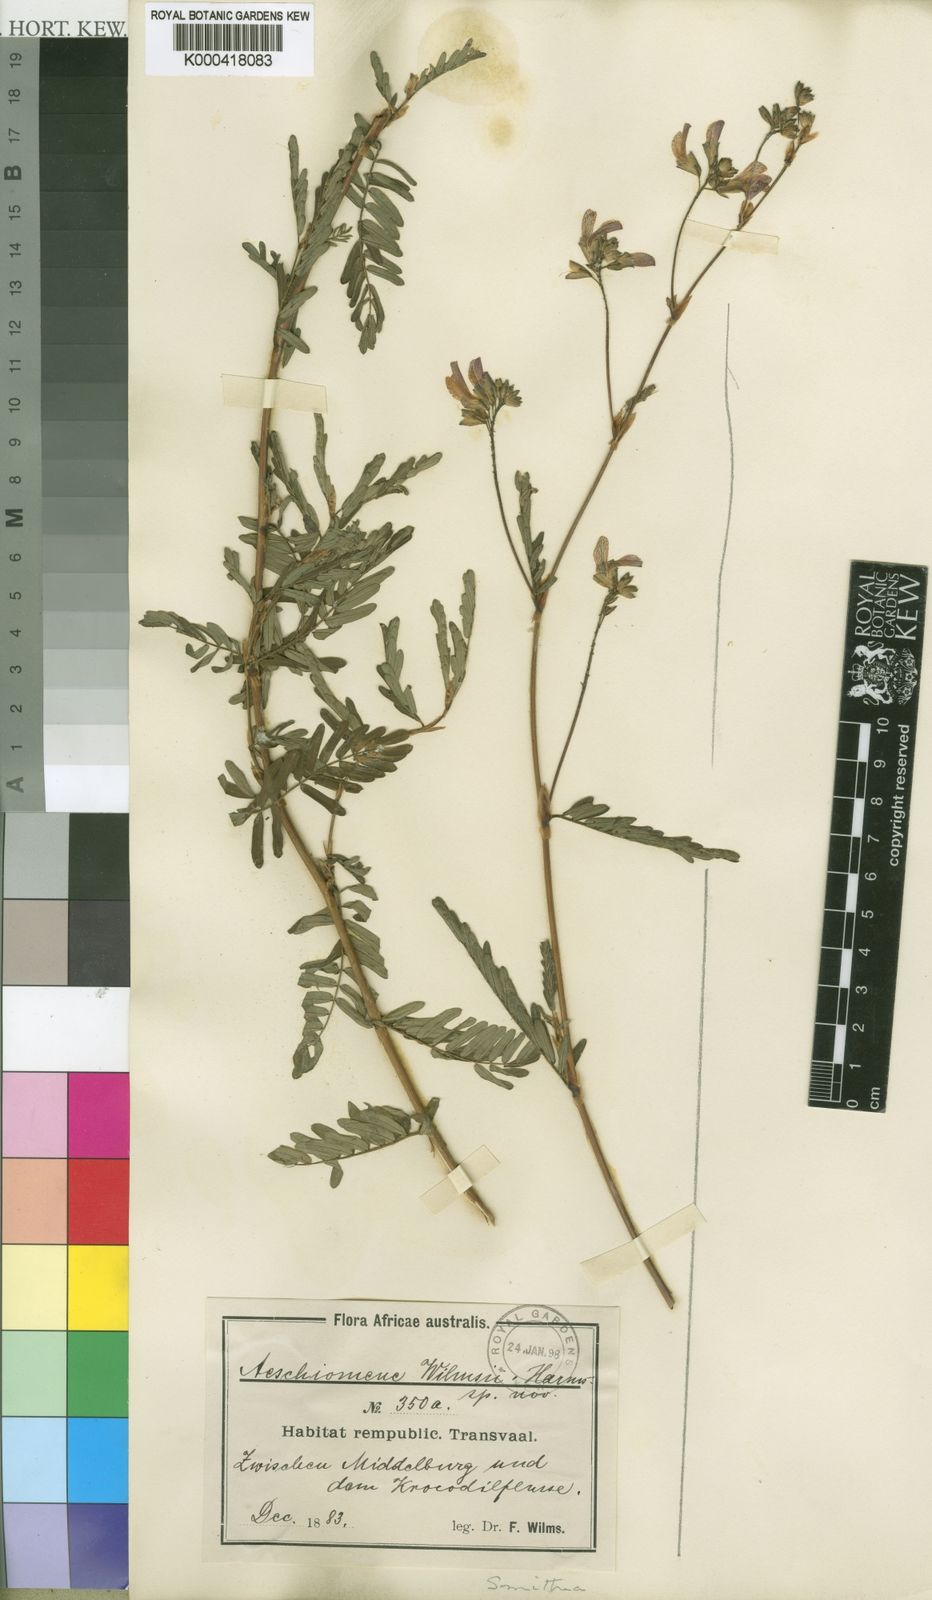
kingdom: Plantae
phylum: Tracheophyta
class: Magnoliopsida
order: Fabales
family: Fabaceae
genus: Smithia
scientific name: Smithia erubescens
